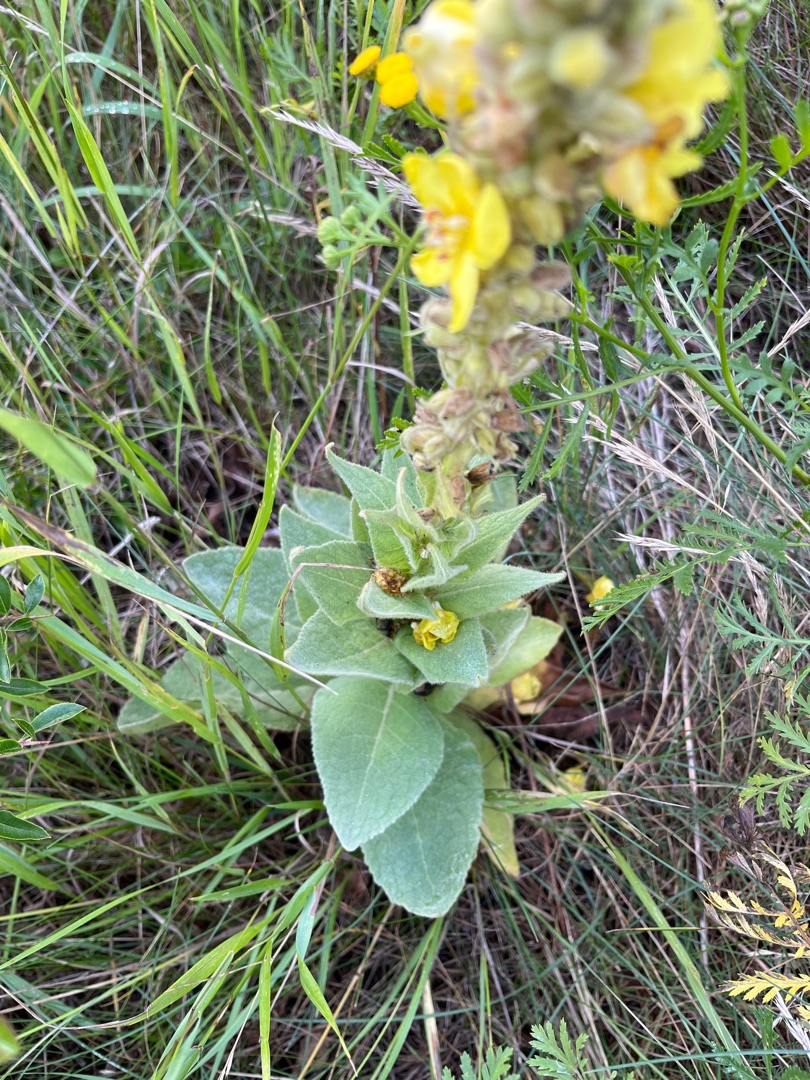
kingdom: Plantae
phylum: Tracheophyta
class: Magnoliopsida
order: Lamiales
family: Scrophulariaceae
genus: Verbascum
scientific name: Verbascum thapsus
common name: Filtbladet kongelys
